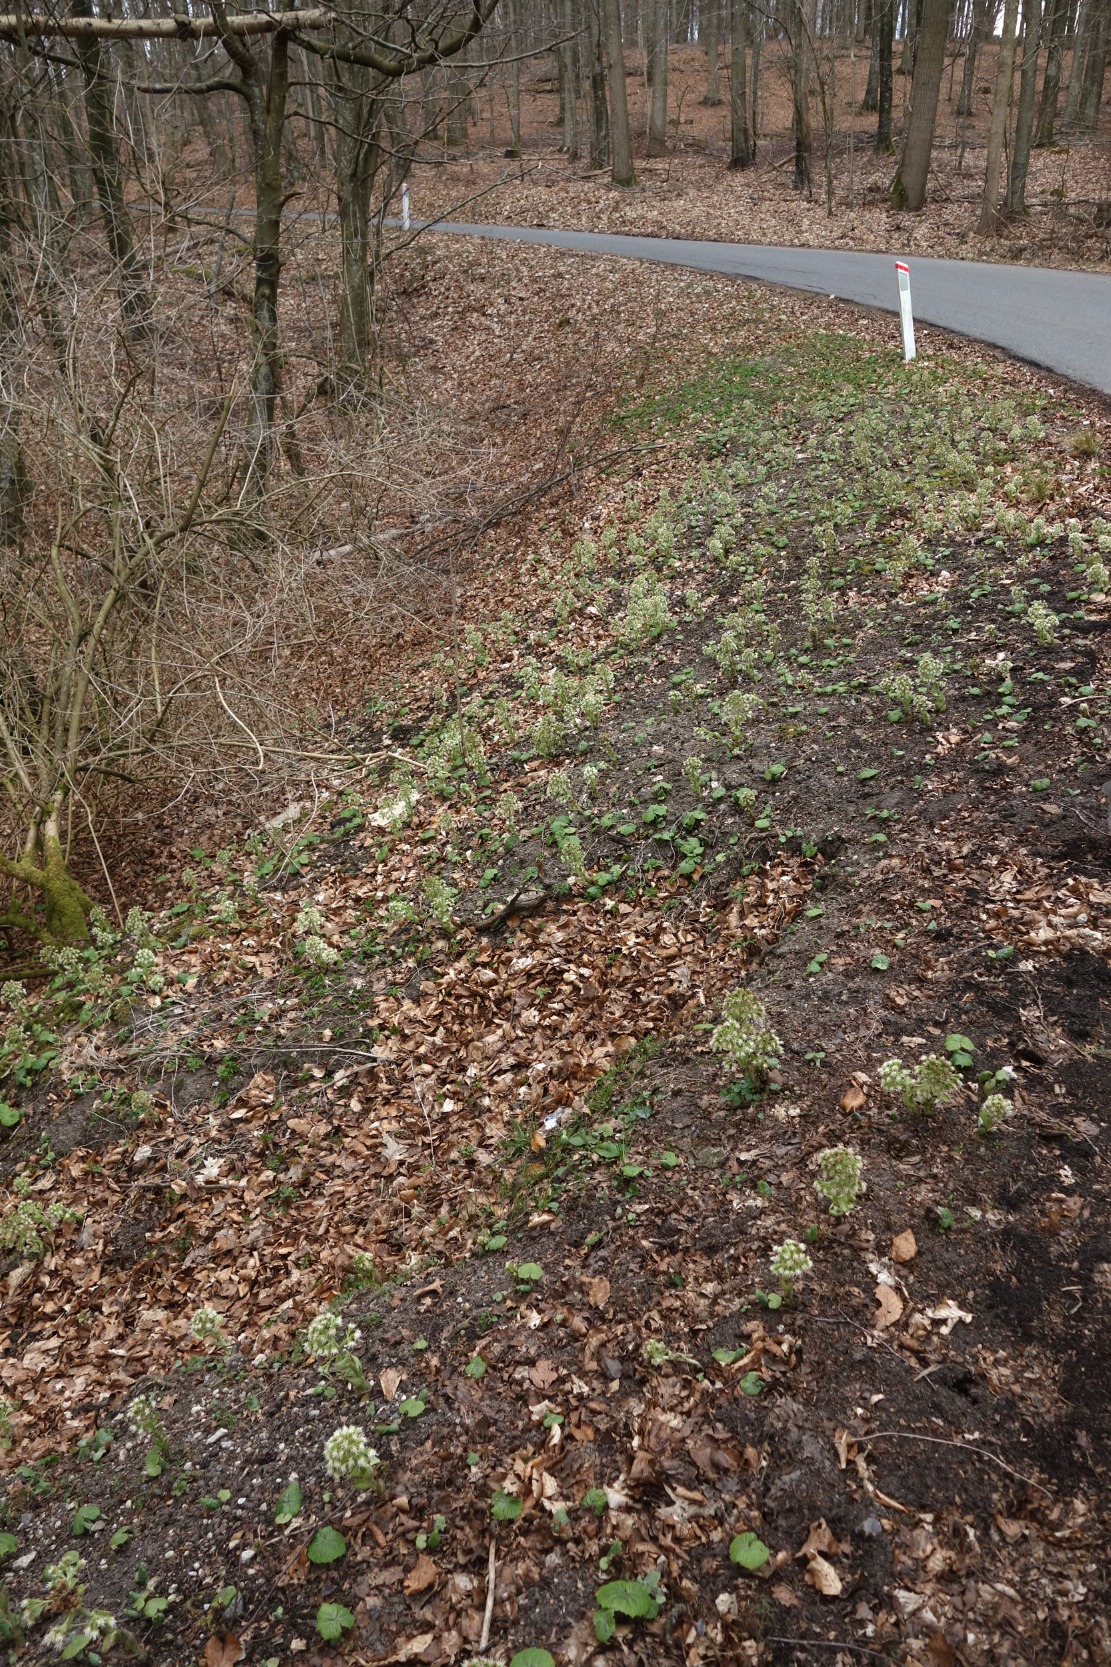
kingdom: Plantae
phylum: Tracheophyta
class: Magnoliopsida
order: Asterales
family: Asteraceae
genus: Petasites
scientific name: Petasites albus
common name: Hvid hestehov
